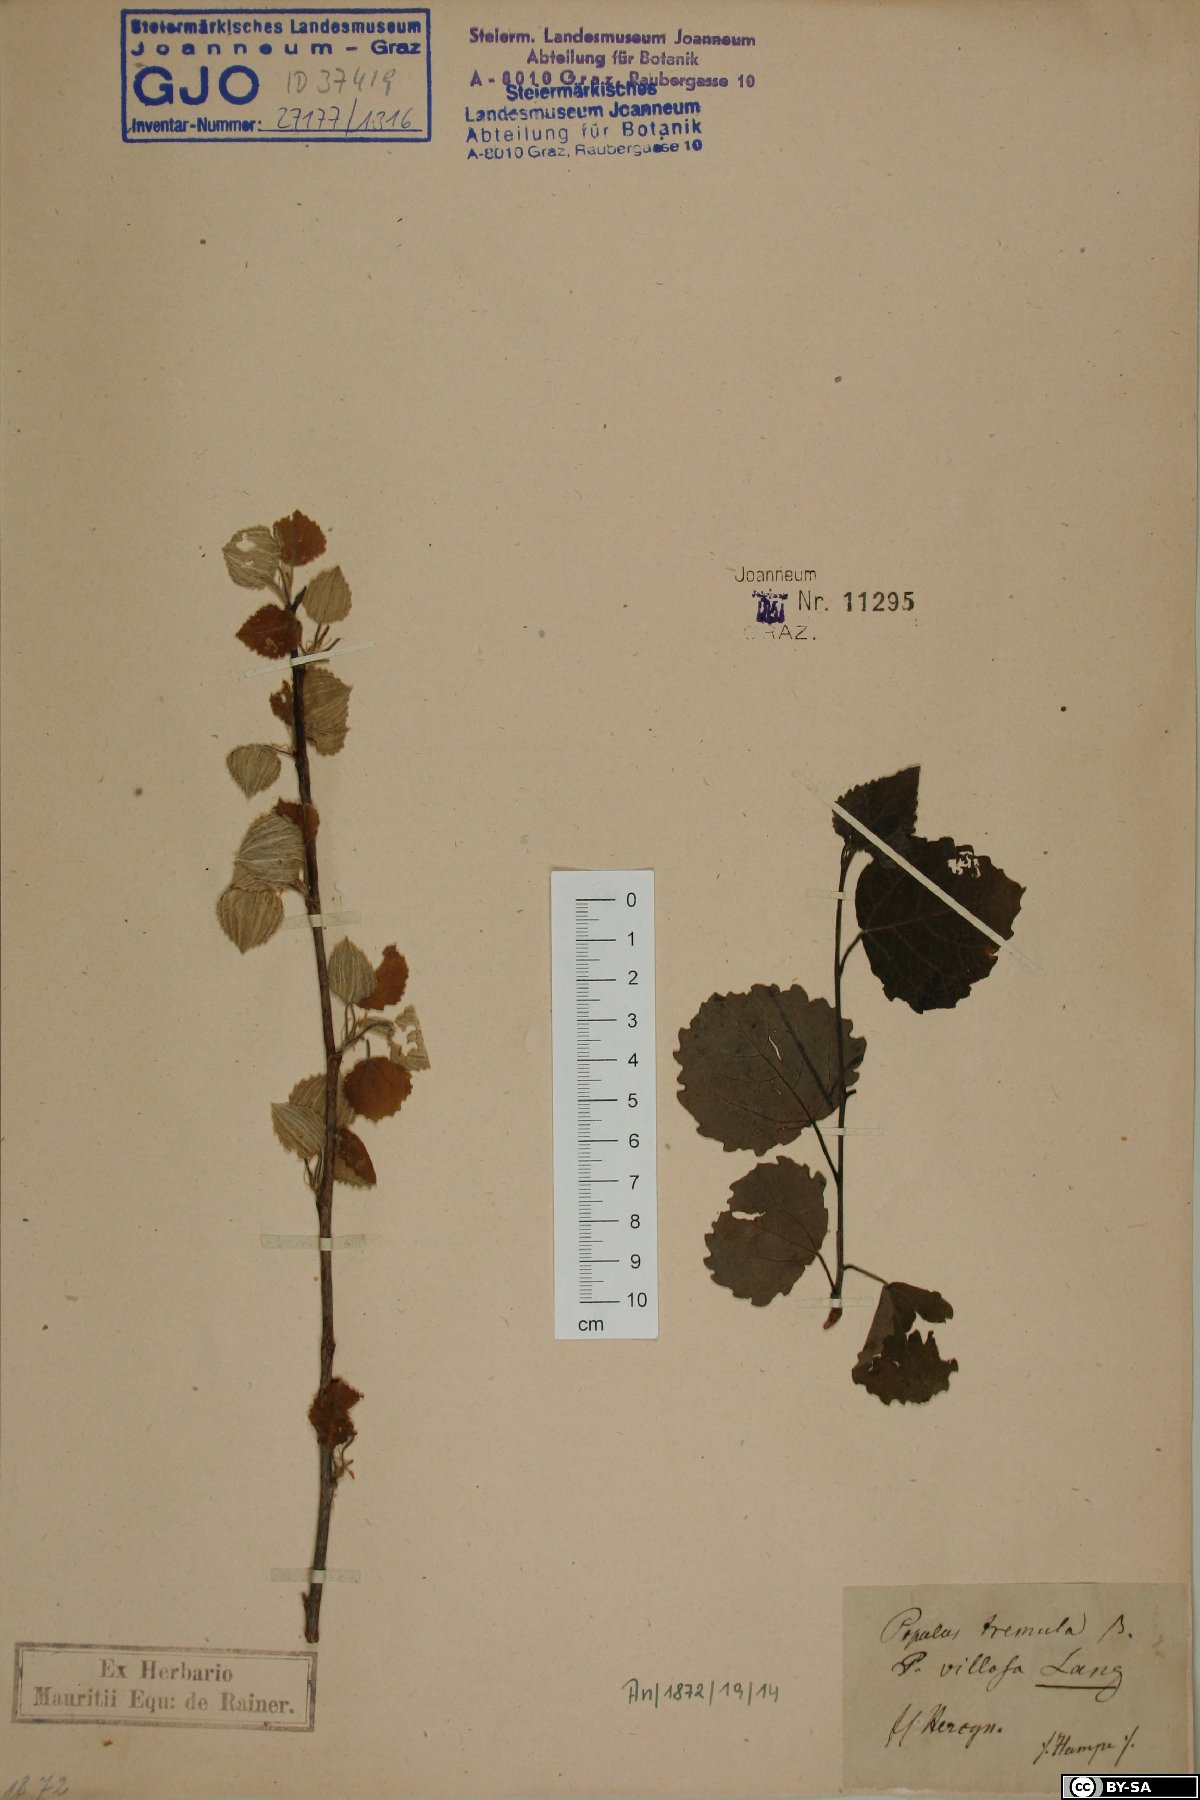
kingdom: Plantae
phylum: Tracheophyta
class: Magnoliopsida
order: Malpighiales
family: Salicaceae
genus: Populus
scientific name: Populus tremula
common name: European aspen
